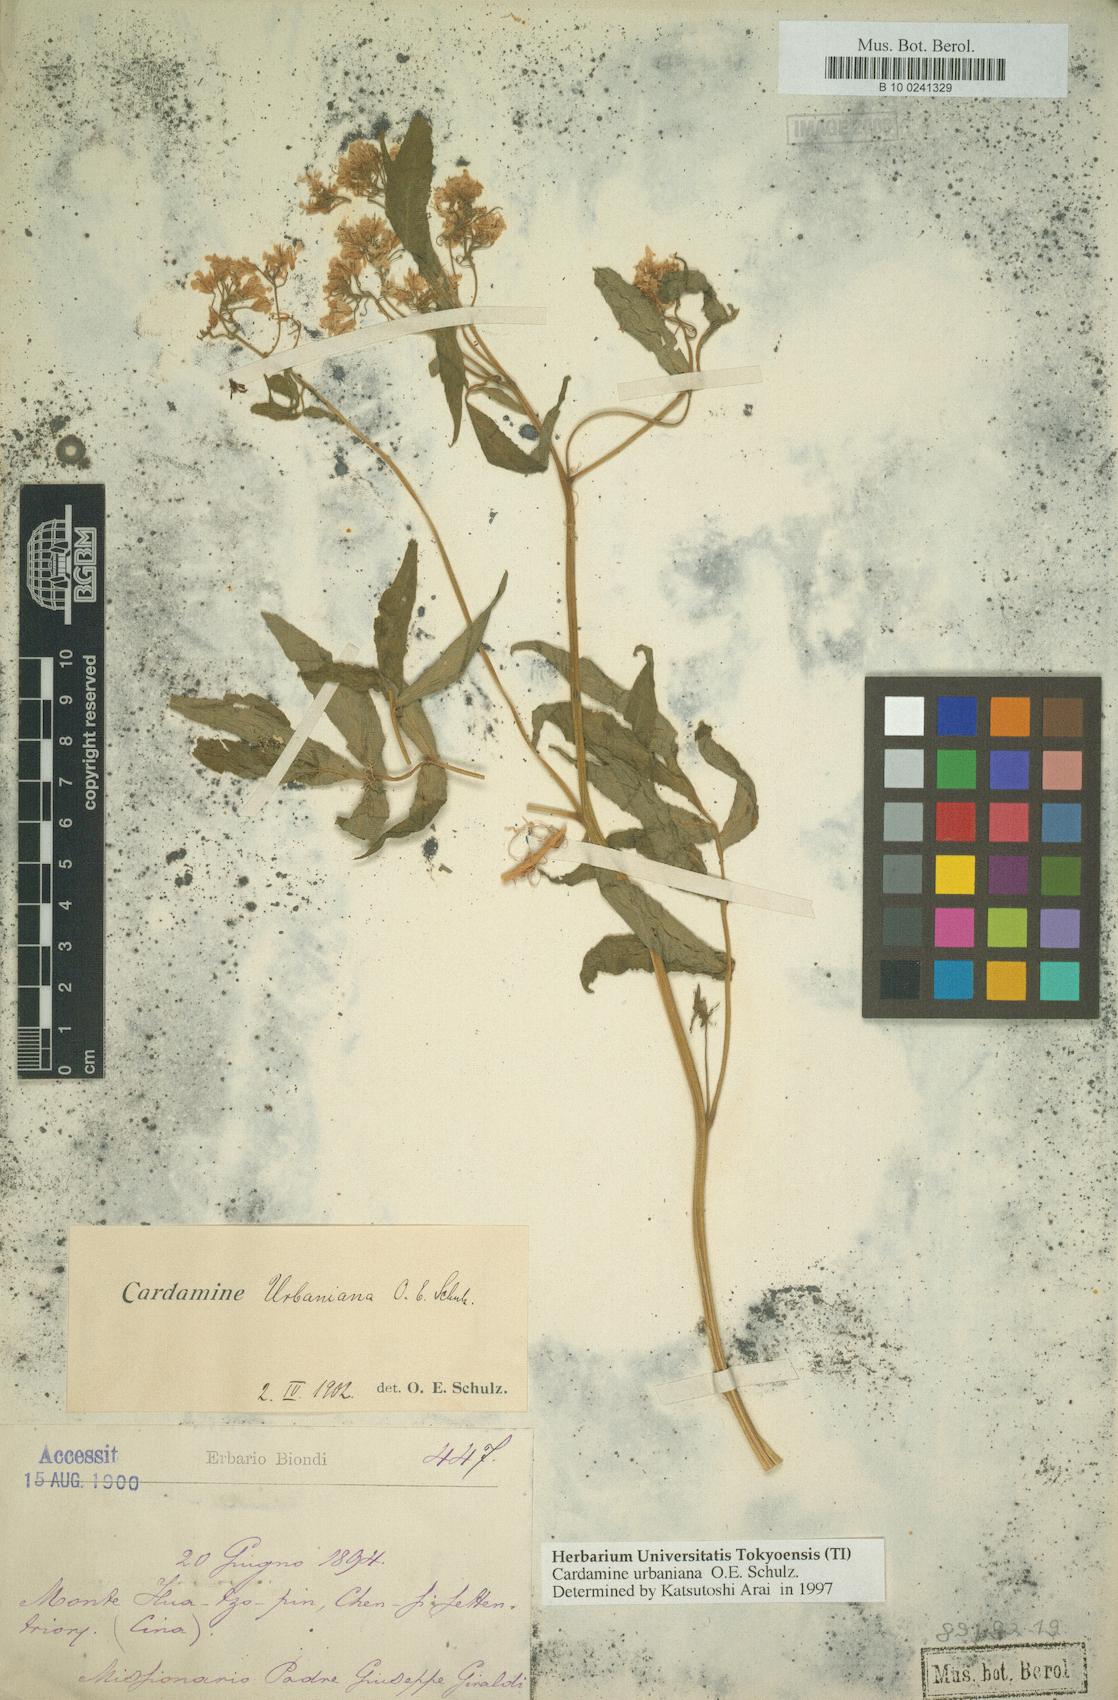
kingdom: Plantae
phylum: Tracheophyta
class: Magnoliopsida
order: Brassicales
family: Brassicaceae
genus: Cardamine
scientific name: Cardamine macrophylla
